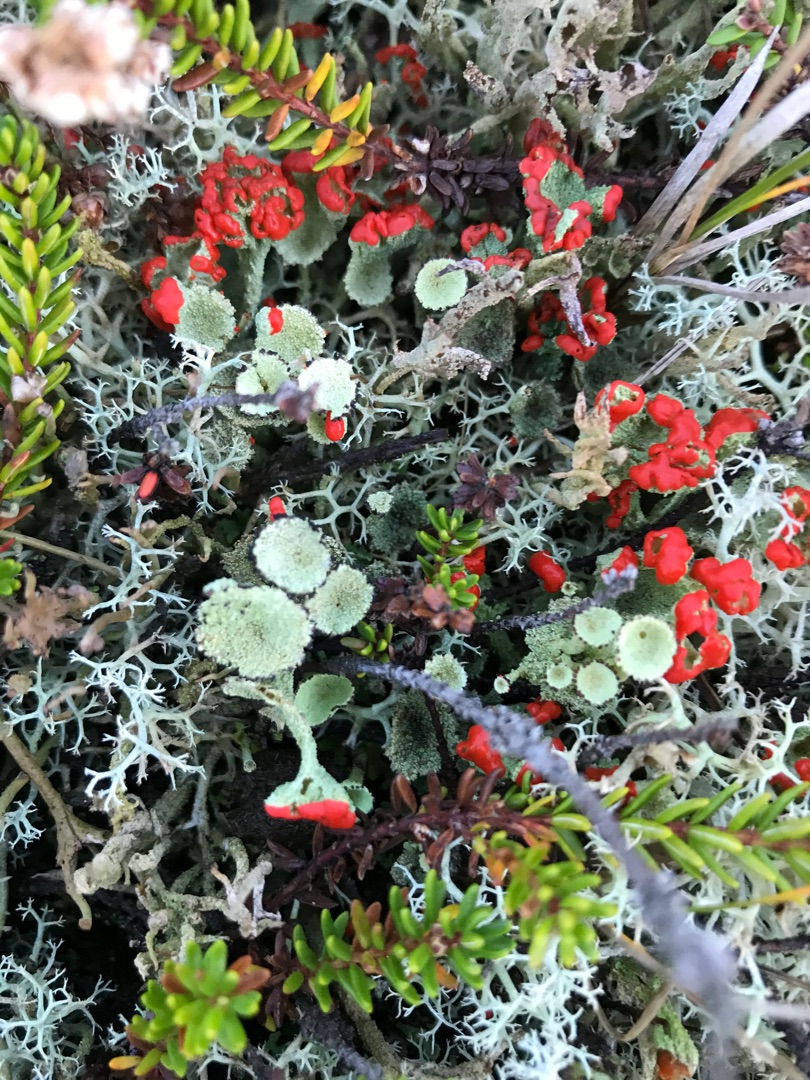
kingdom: Fungi
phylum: Ascomycota
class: Lecanoromycetes
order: Lecanorales
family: Cladoniaceae
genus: Cladonia
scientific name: Cladonia diversa
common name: Rød bægerlav
